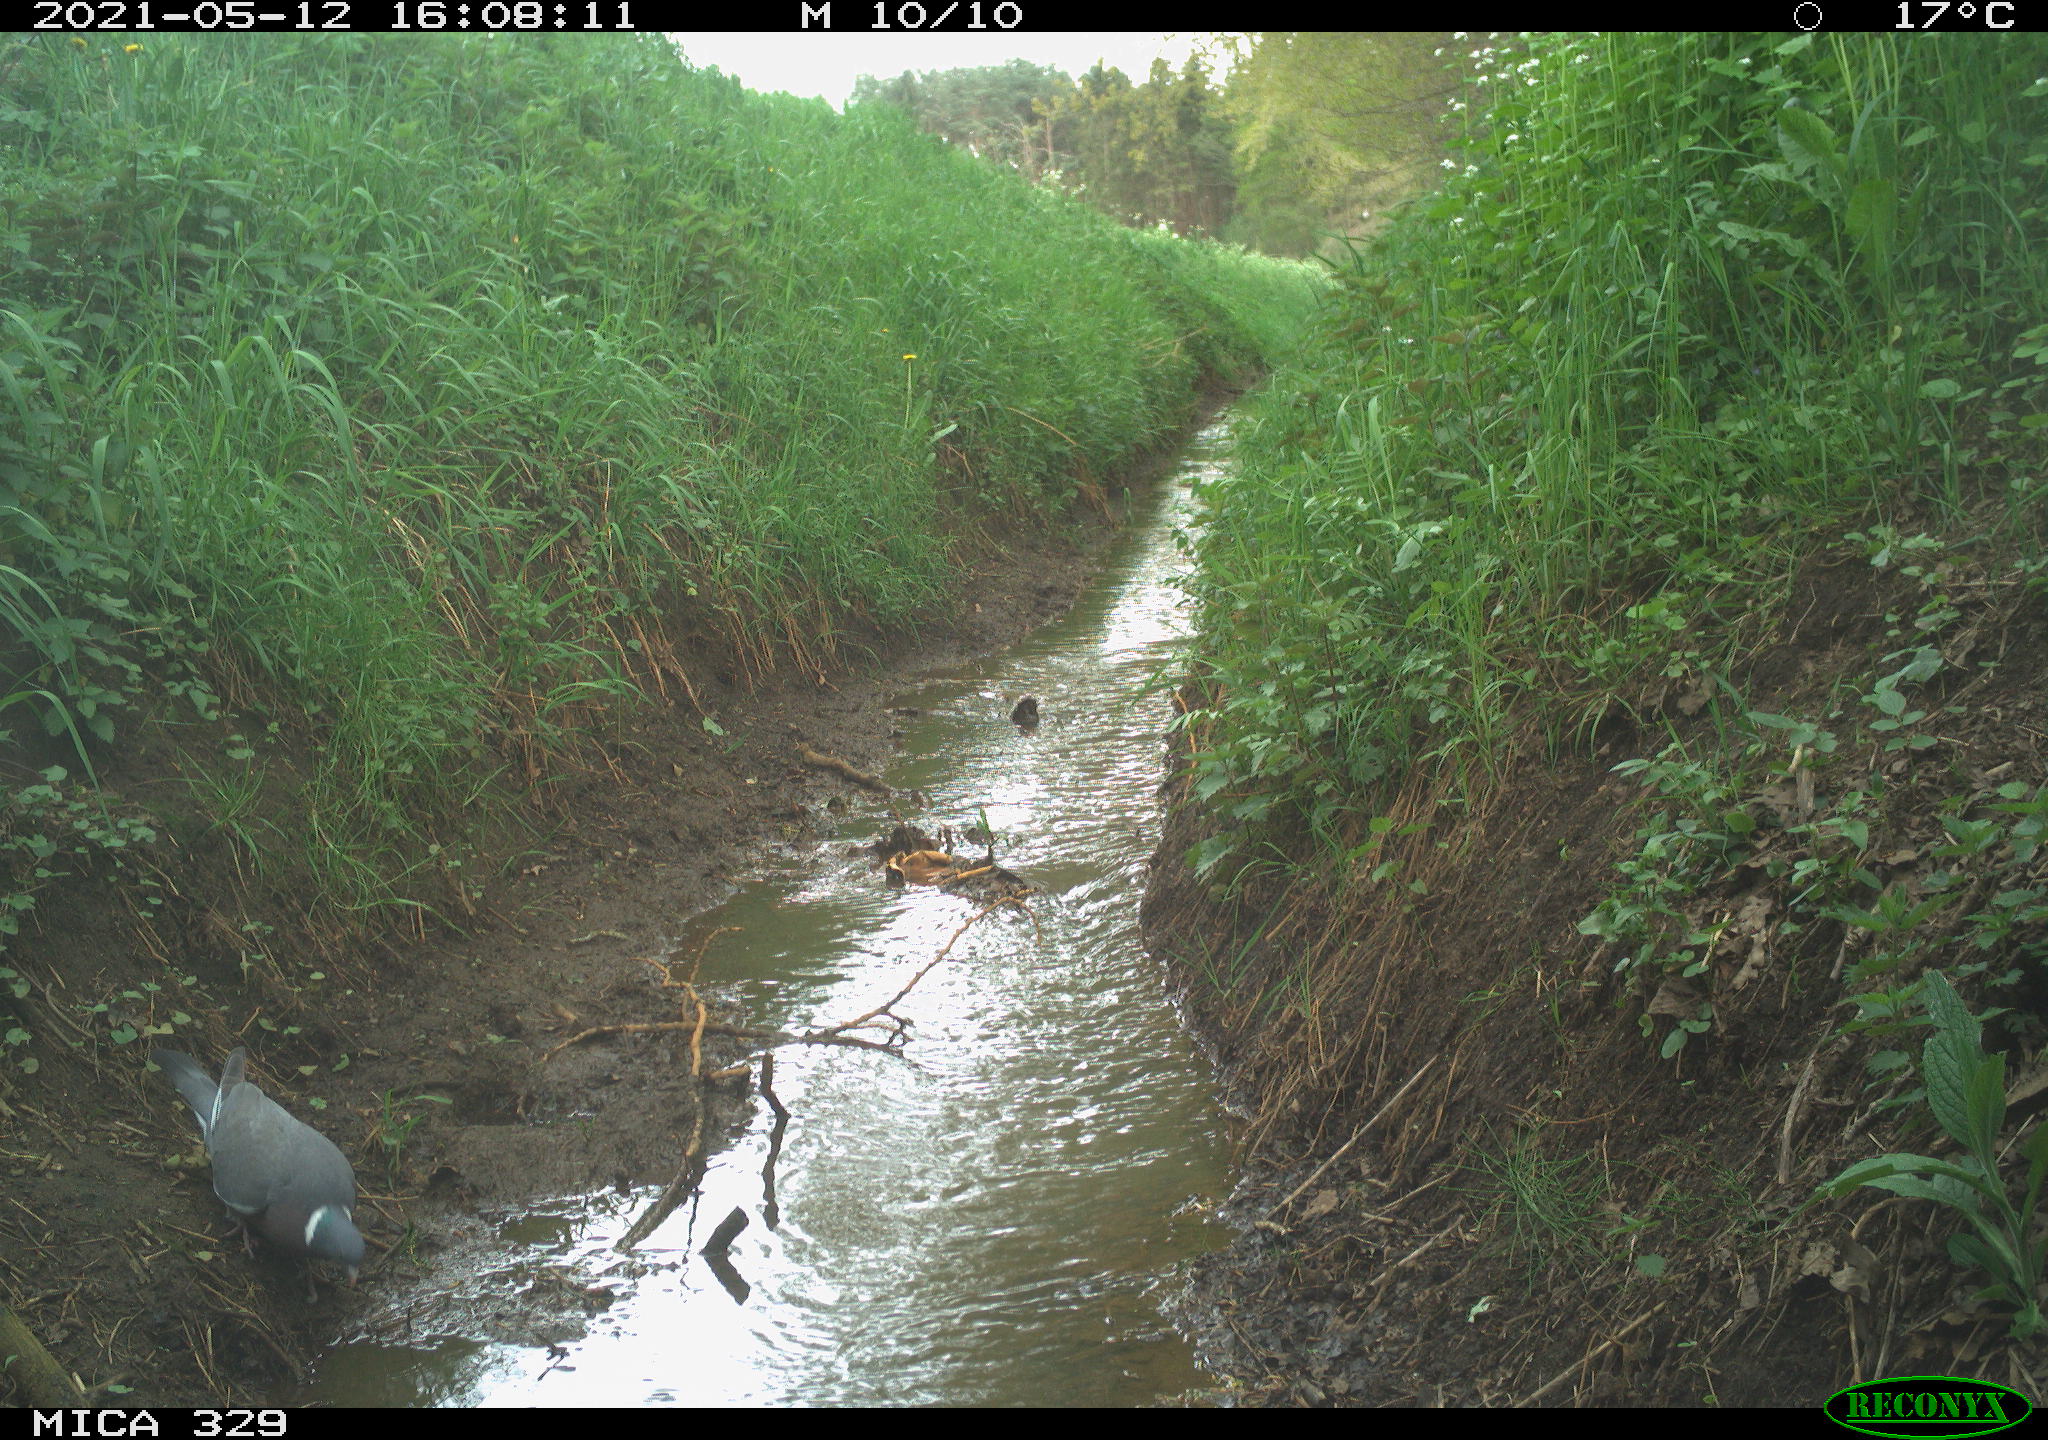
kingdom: Animalia
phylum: Chordata
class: Aves
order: Columbiformes
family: Columbidae
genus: Columba
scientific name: Columba palumbus
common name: Common wood pigeon
